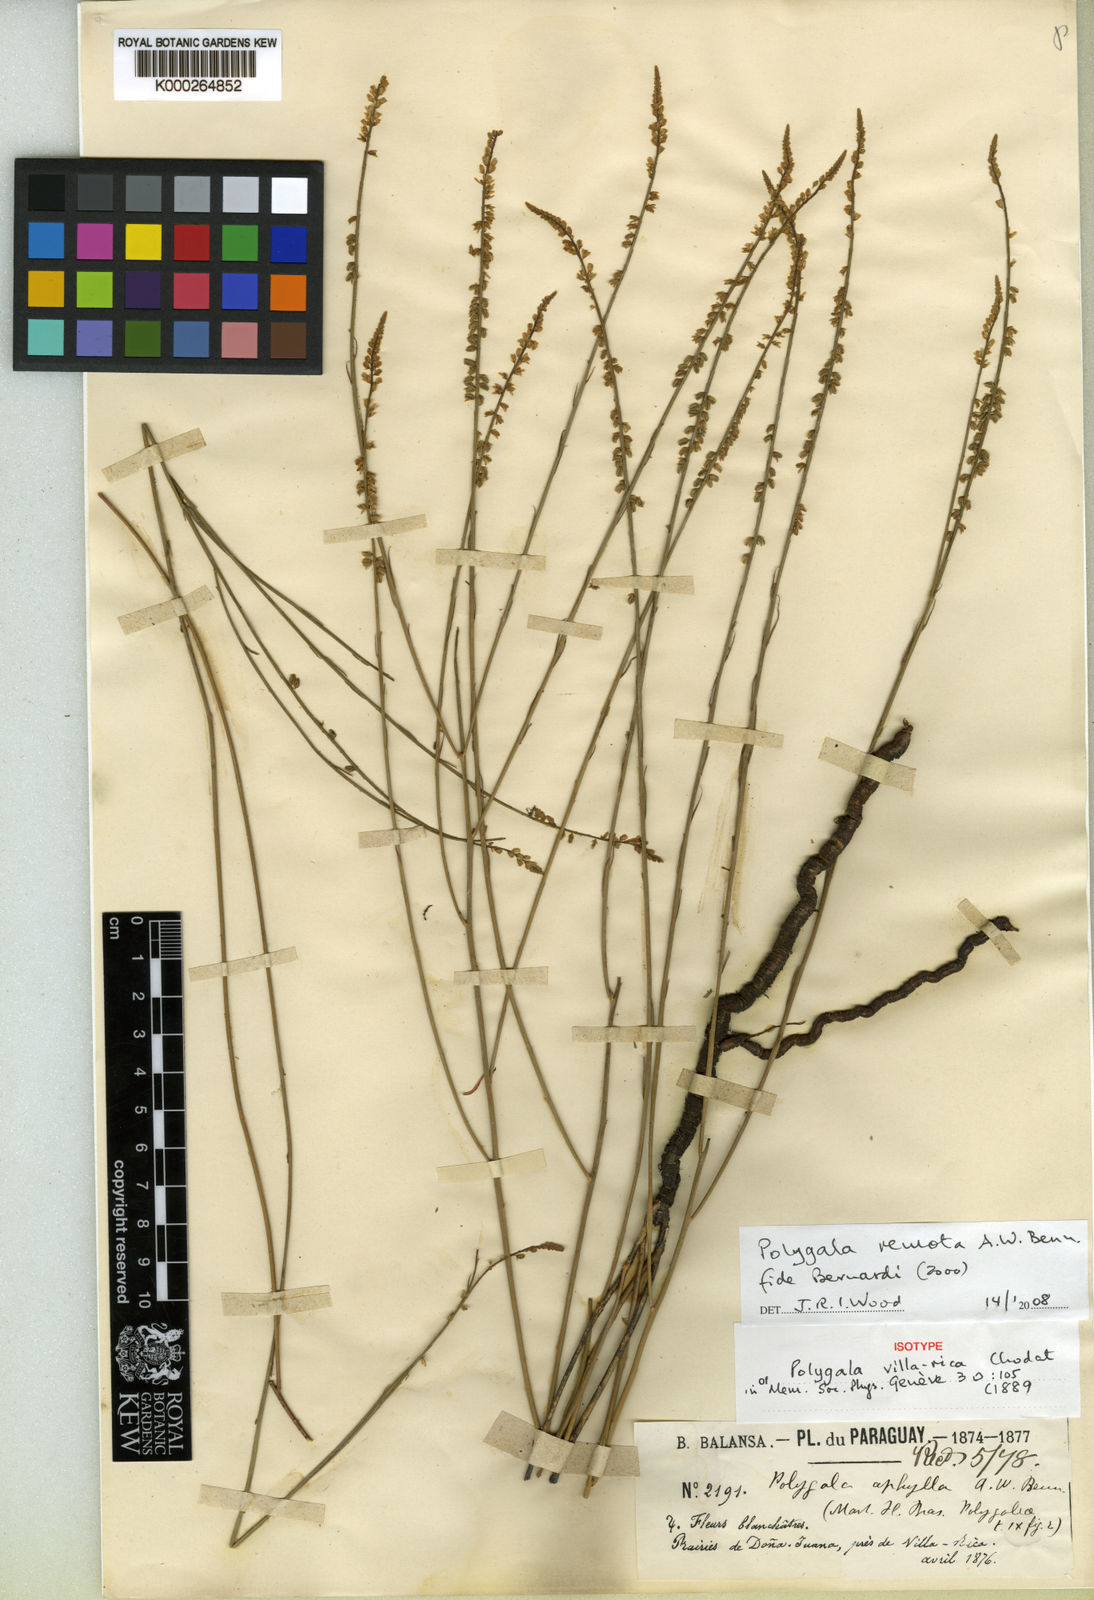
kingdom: Plantae
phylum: Tracheophyta
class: Magnoliopsida
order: Fabales
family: Polygalaceae
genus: Polygala
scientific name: Polygala
